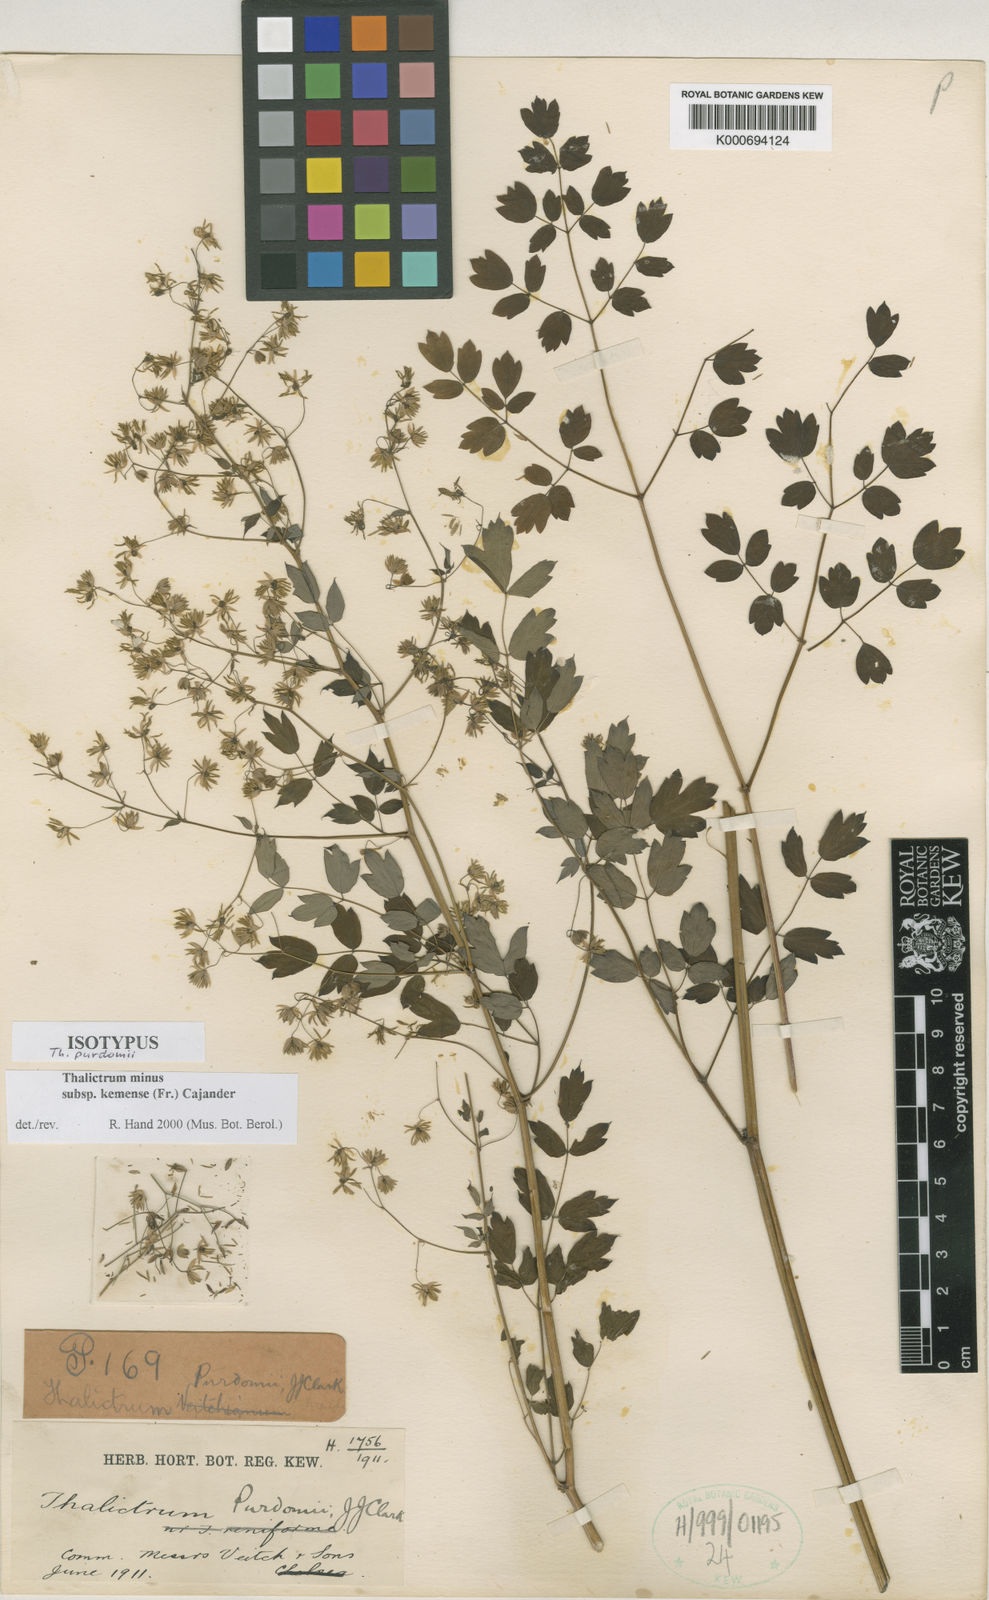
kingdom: Plantae
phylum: Tracheophyta
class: Magnoliopsida
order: Ranunculales
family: Ranunculaceae
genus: Thalictrum
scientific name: Thalictrum minus
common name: Lesser meadow-rue
